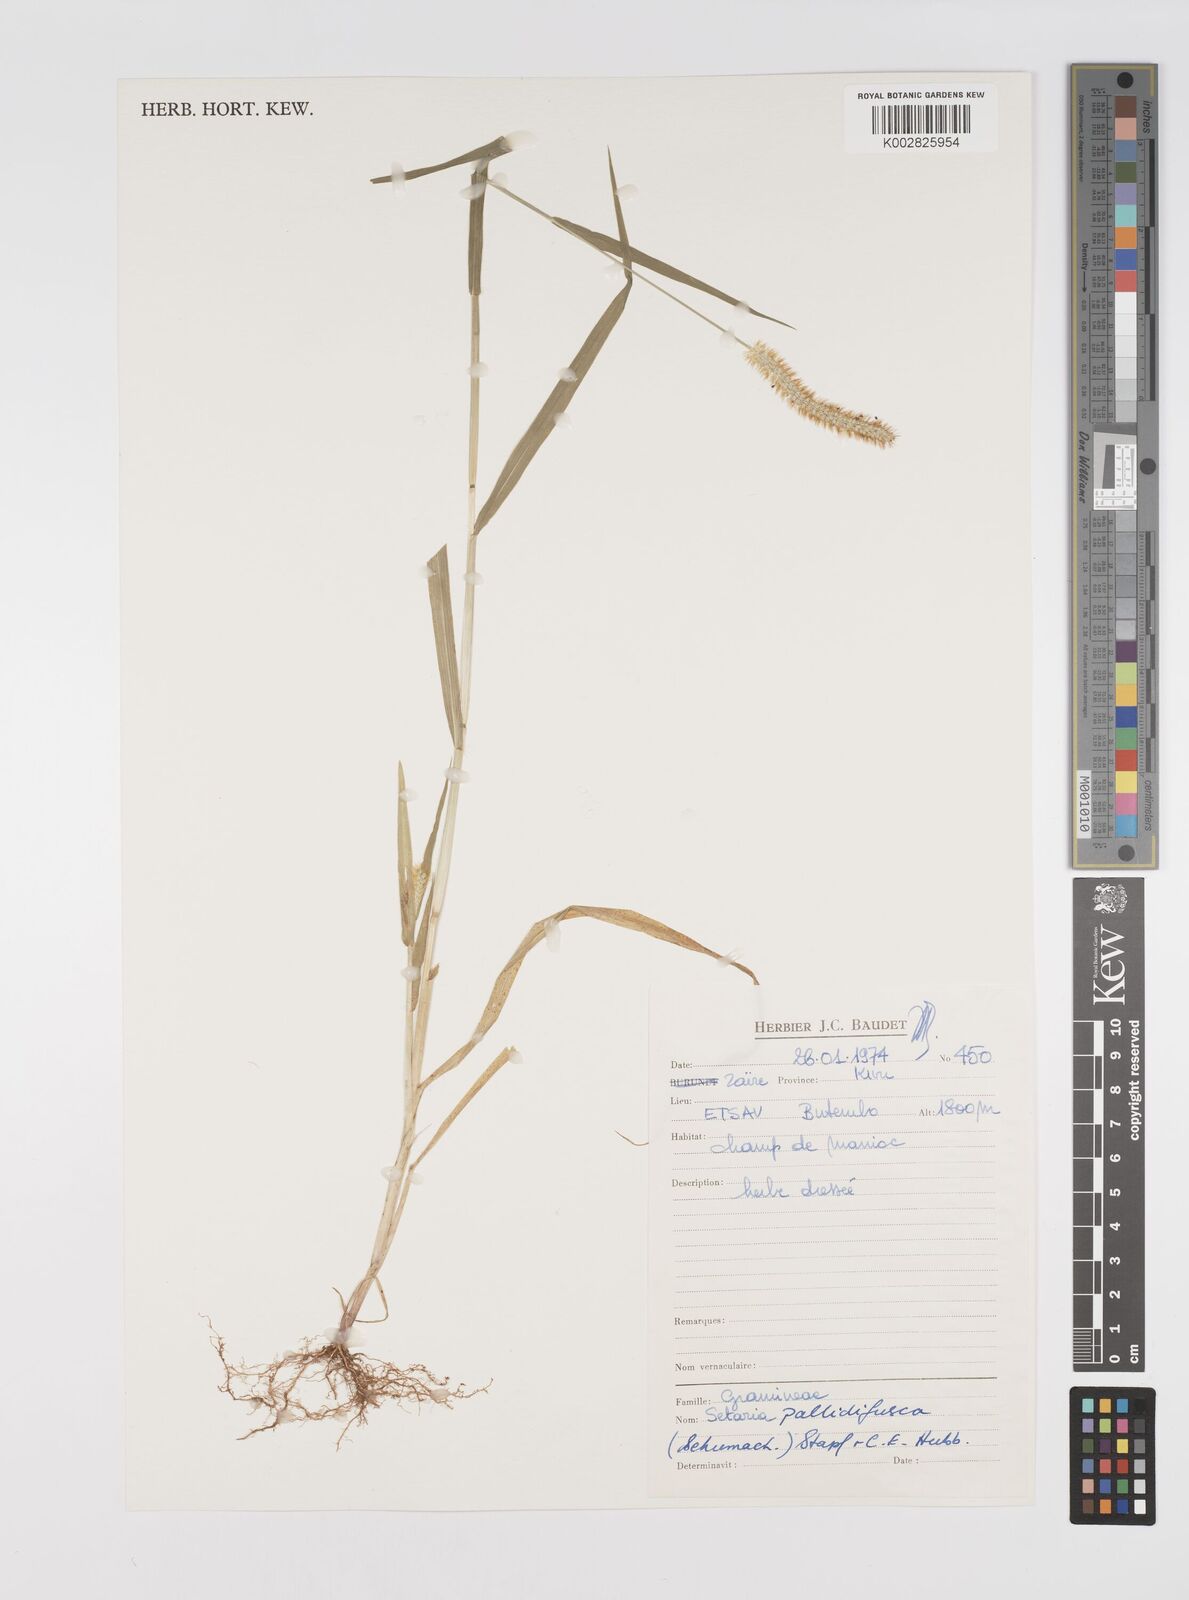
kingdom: Plantae
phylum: Tracheophyta
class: Liliopsida
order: Poales
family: Poaceae
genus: Setaria
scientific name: Setaria pumila
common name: Yellow bristle-grass
